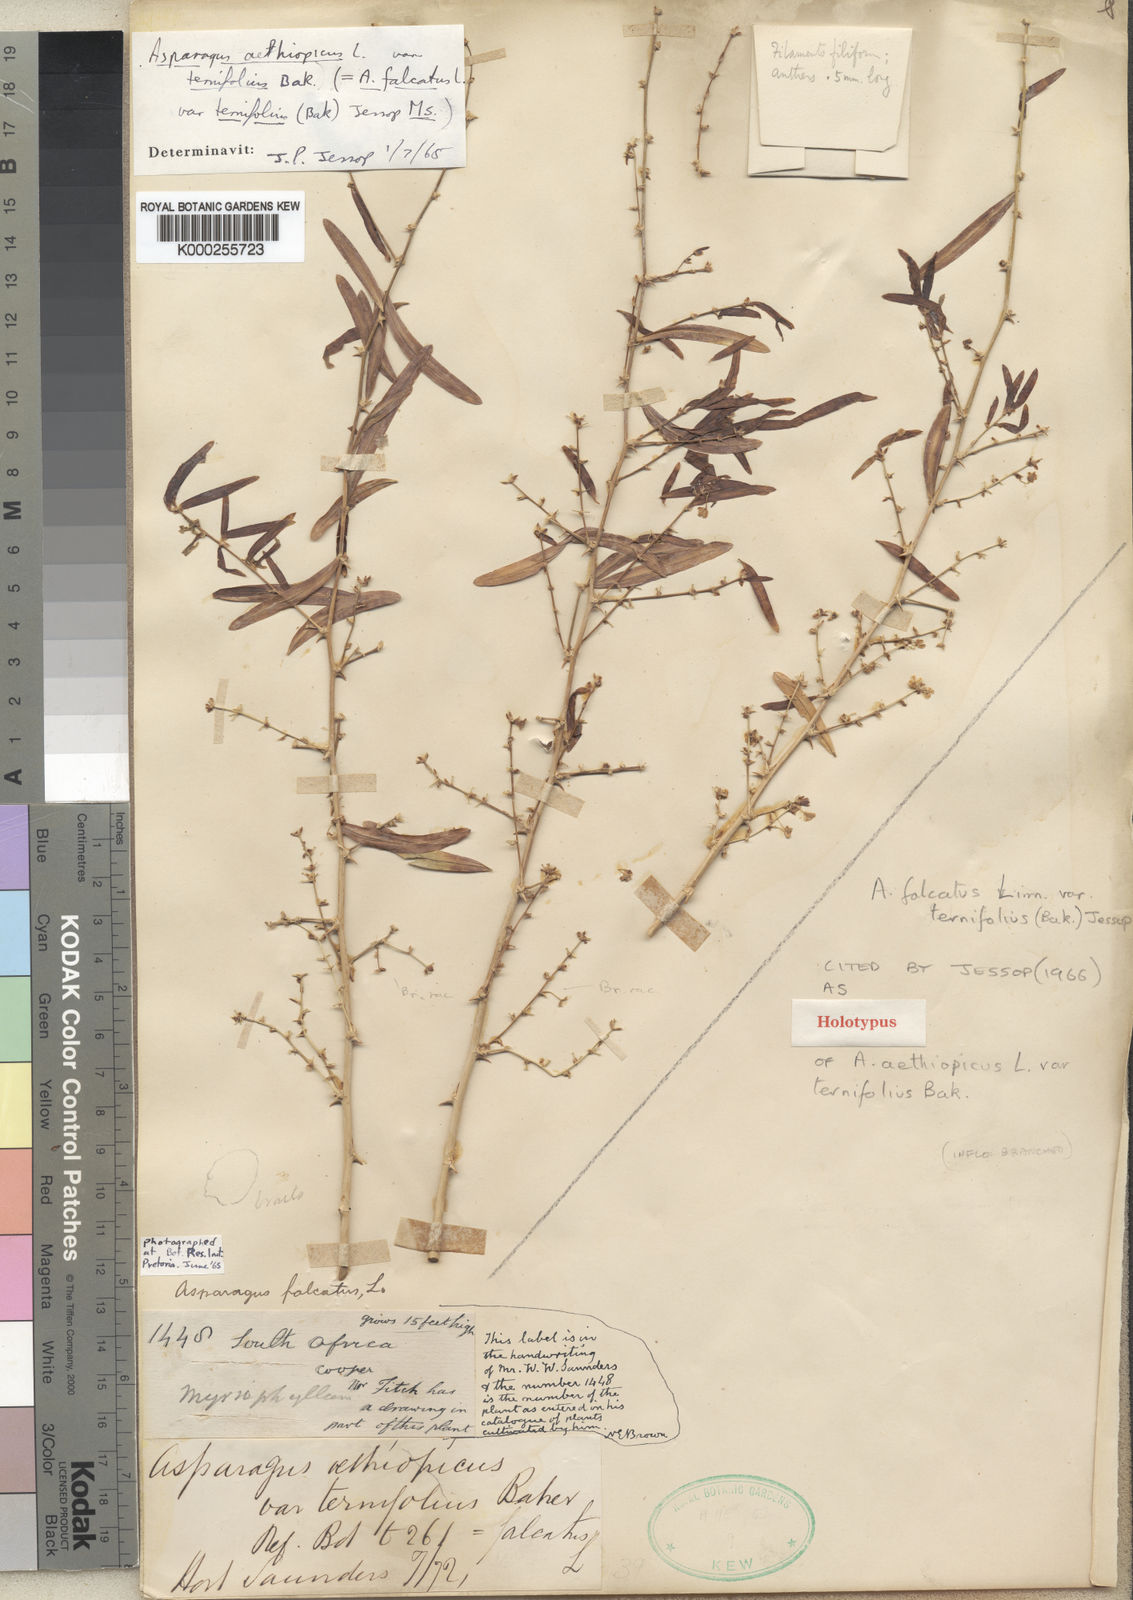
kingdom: Plantae
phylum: Tracheophyta
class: Liliopsida
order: Asparagales
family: Asparagaceae
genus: Asparagus
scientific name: Asparagus falcatus
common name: Asparagus
